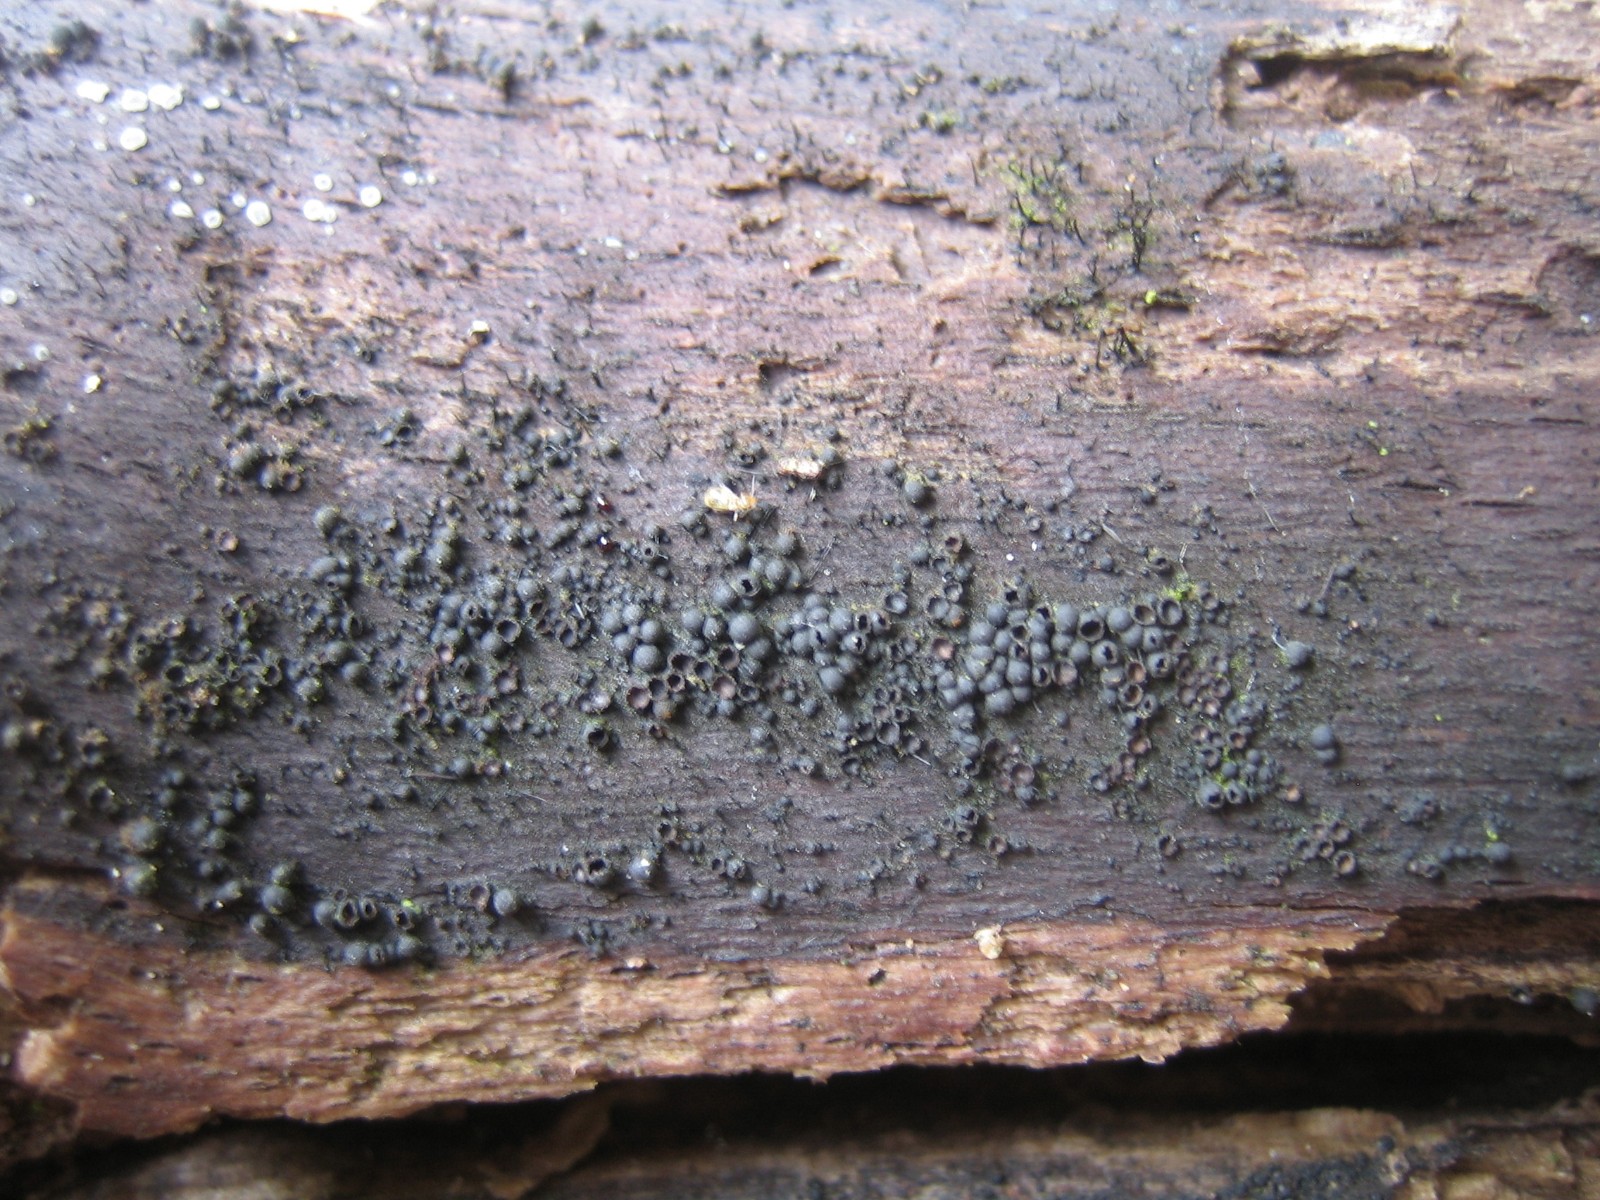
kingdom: Fungi
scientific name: Fungi
